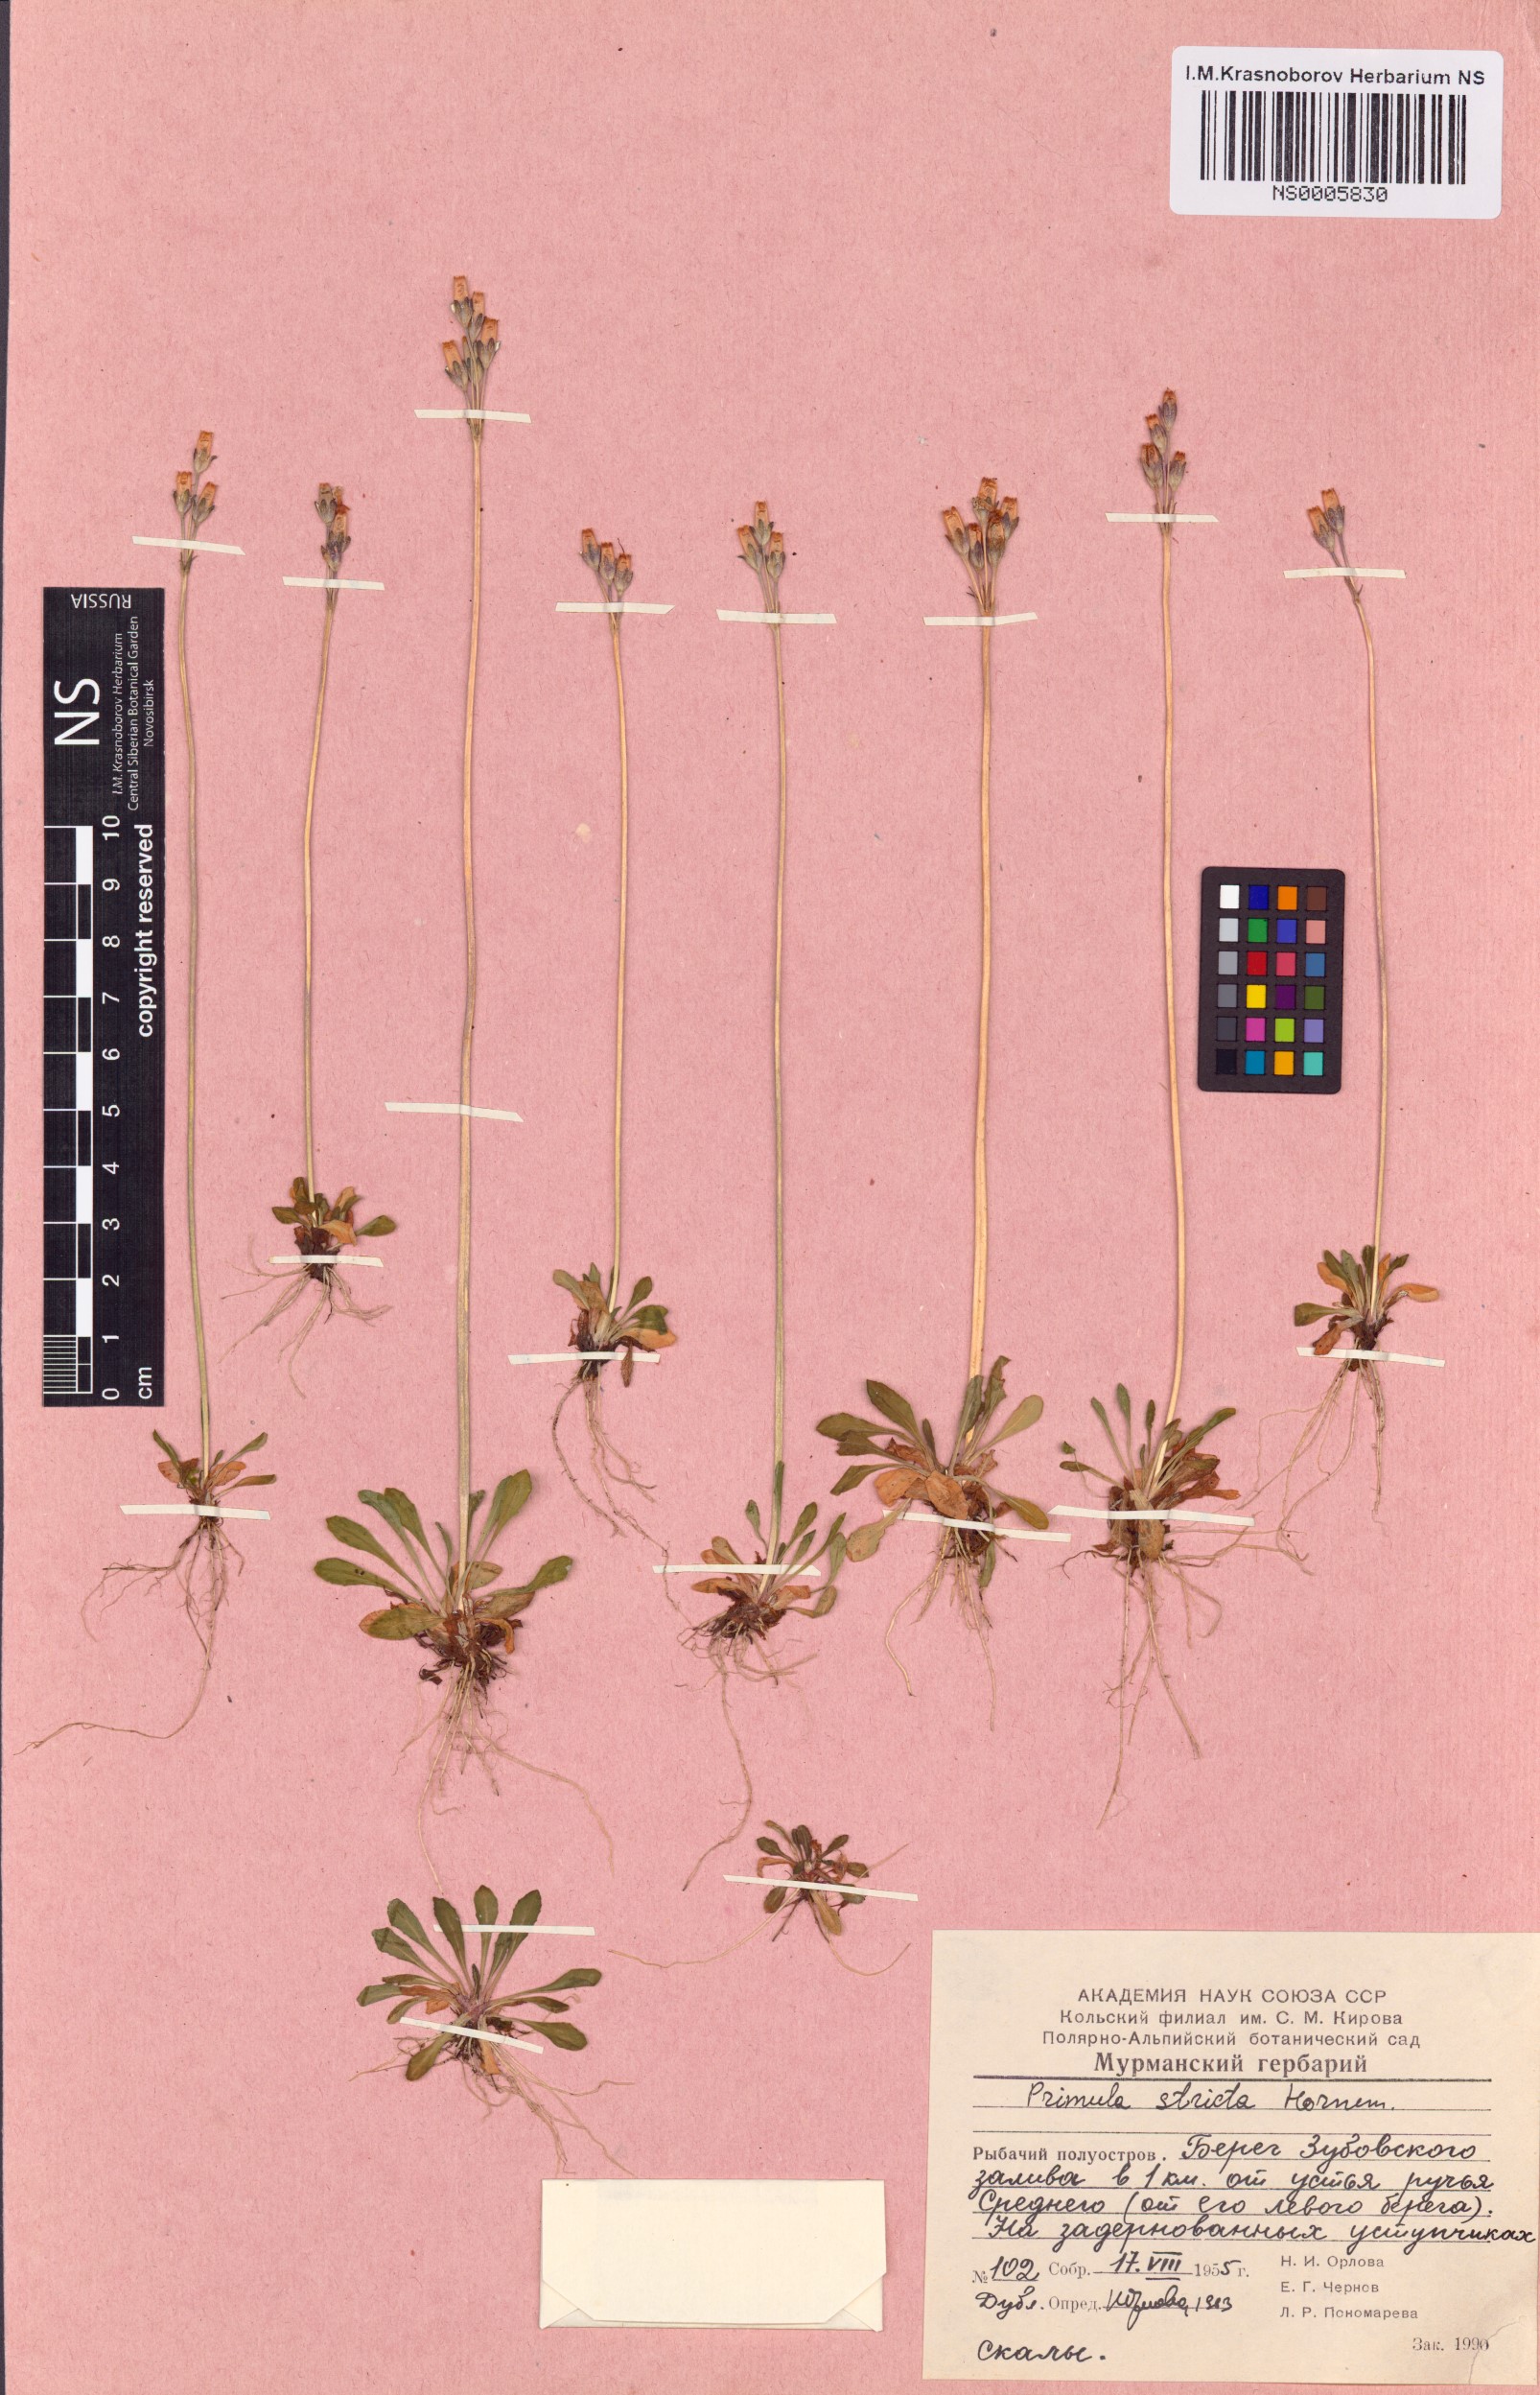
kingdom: Plantae
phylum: Tracheophyta
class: Magnoliopsida
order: Ericales
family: Primulaceae
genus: Primula
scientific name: Primula stricta
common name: Coastal primrose
